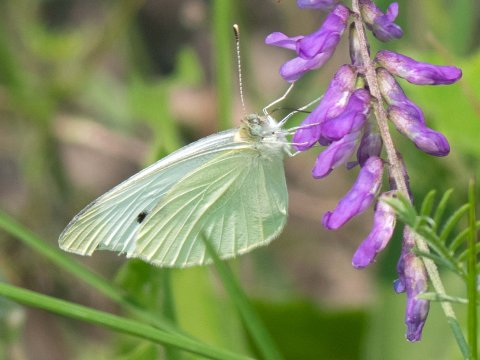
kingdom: Animalia
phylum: Arthropoda
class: Insecta
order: Lepidoptera
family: Pieridae
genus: Pieris
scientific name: Pieris rapae
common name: Cabbage White
